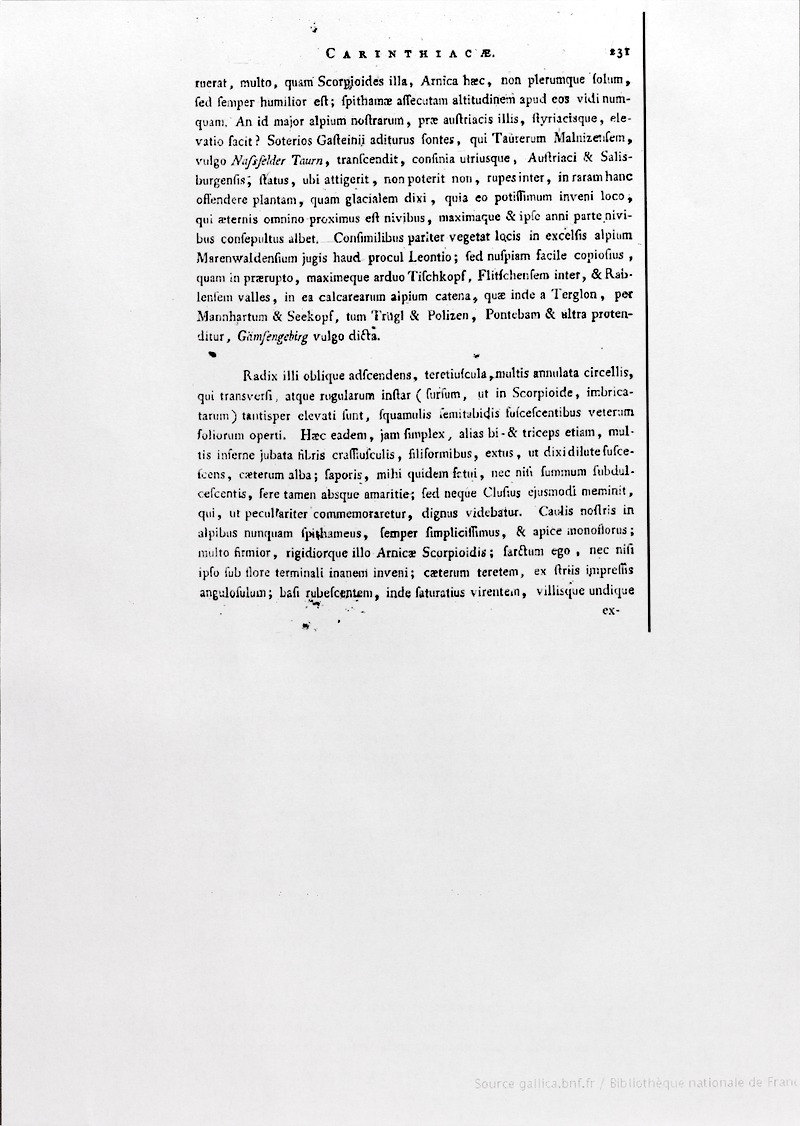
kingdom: Plantae
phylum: Tracheophyta
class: Magnoliopsida
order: Asterales
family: Asteraceae
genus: Doronicum
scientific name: Doronicum glaciale
